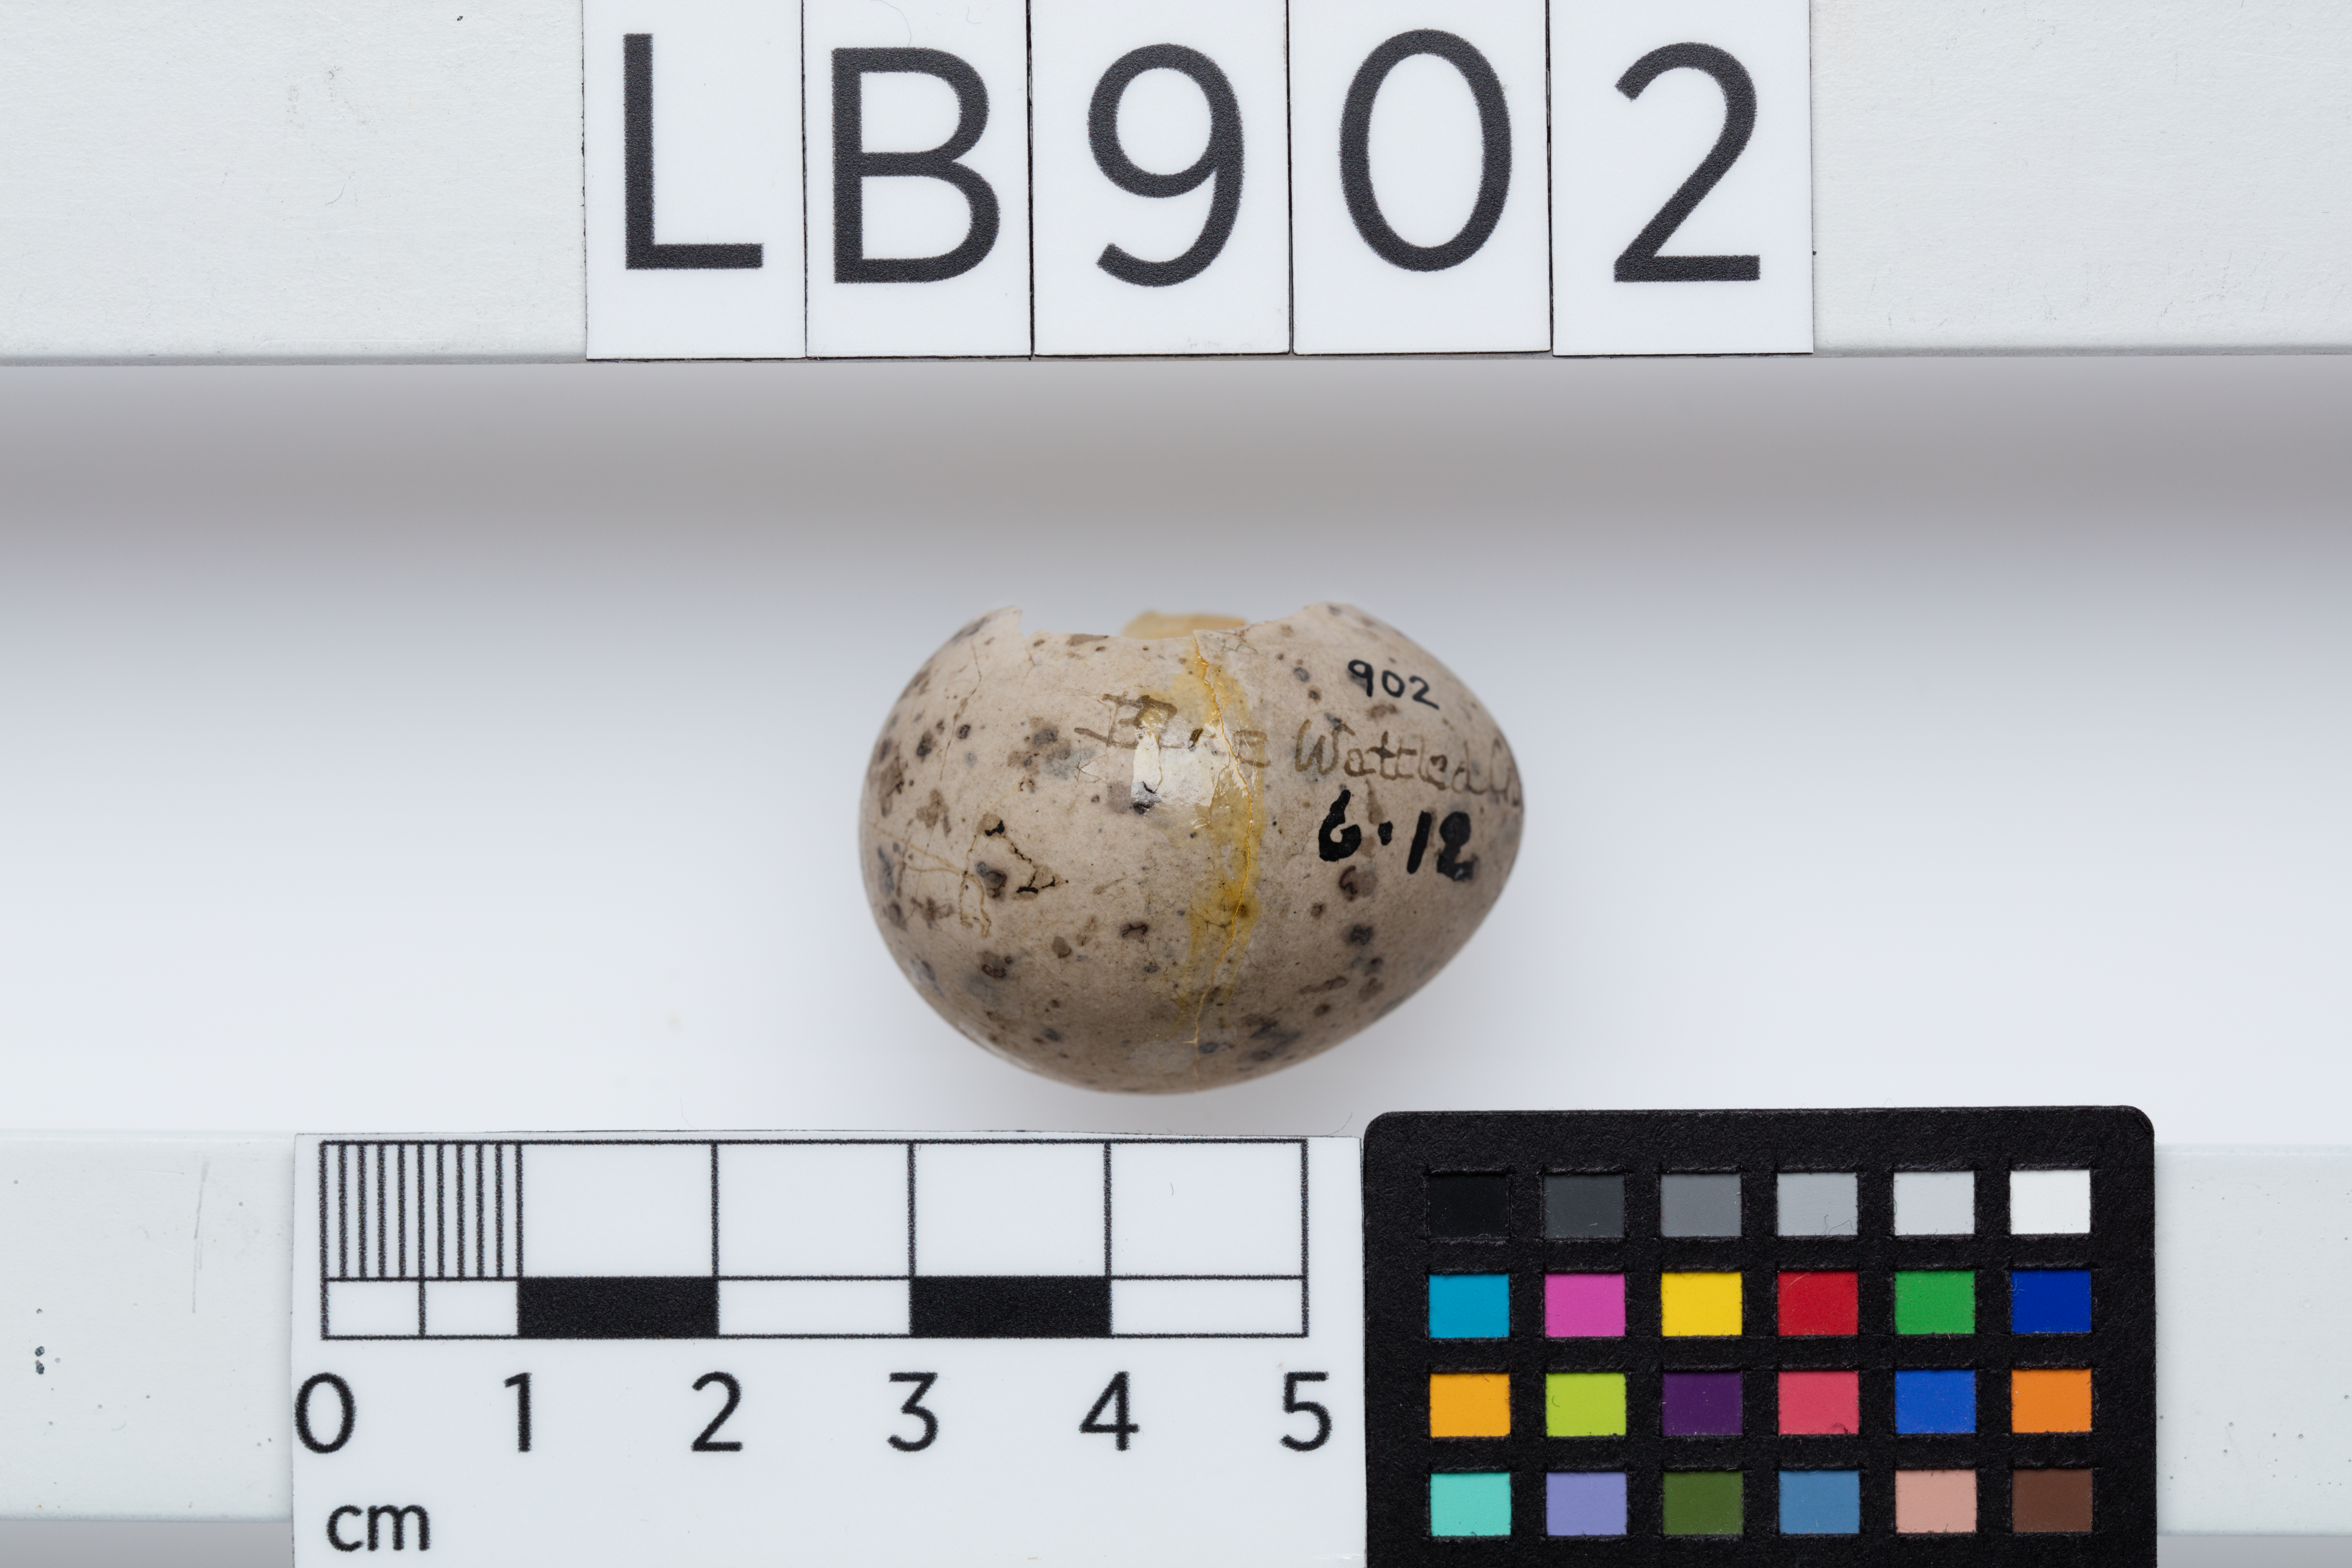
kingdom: Animalia
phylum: Chordata
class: Aves
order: Passeriformes
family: Callaeatidae
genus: Callaeas
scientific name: Callaeas cinereus
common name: South island kokako
